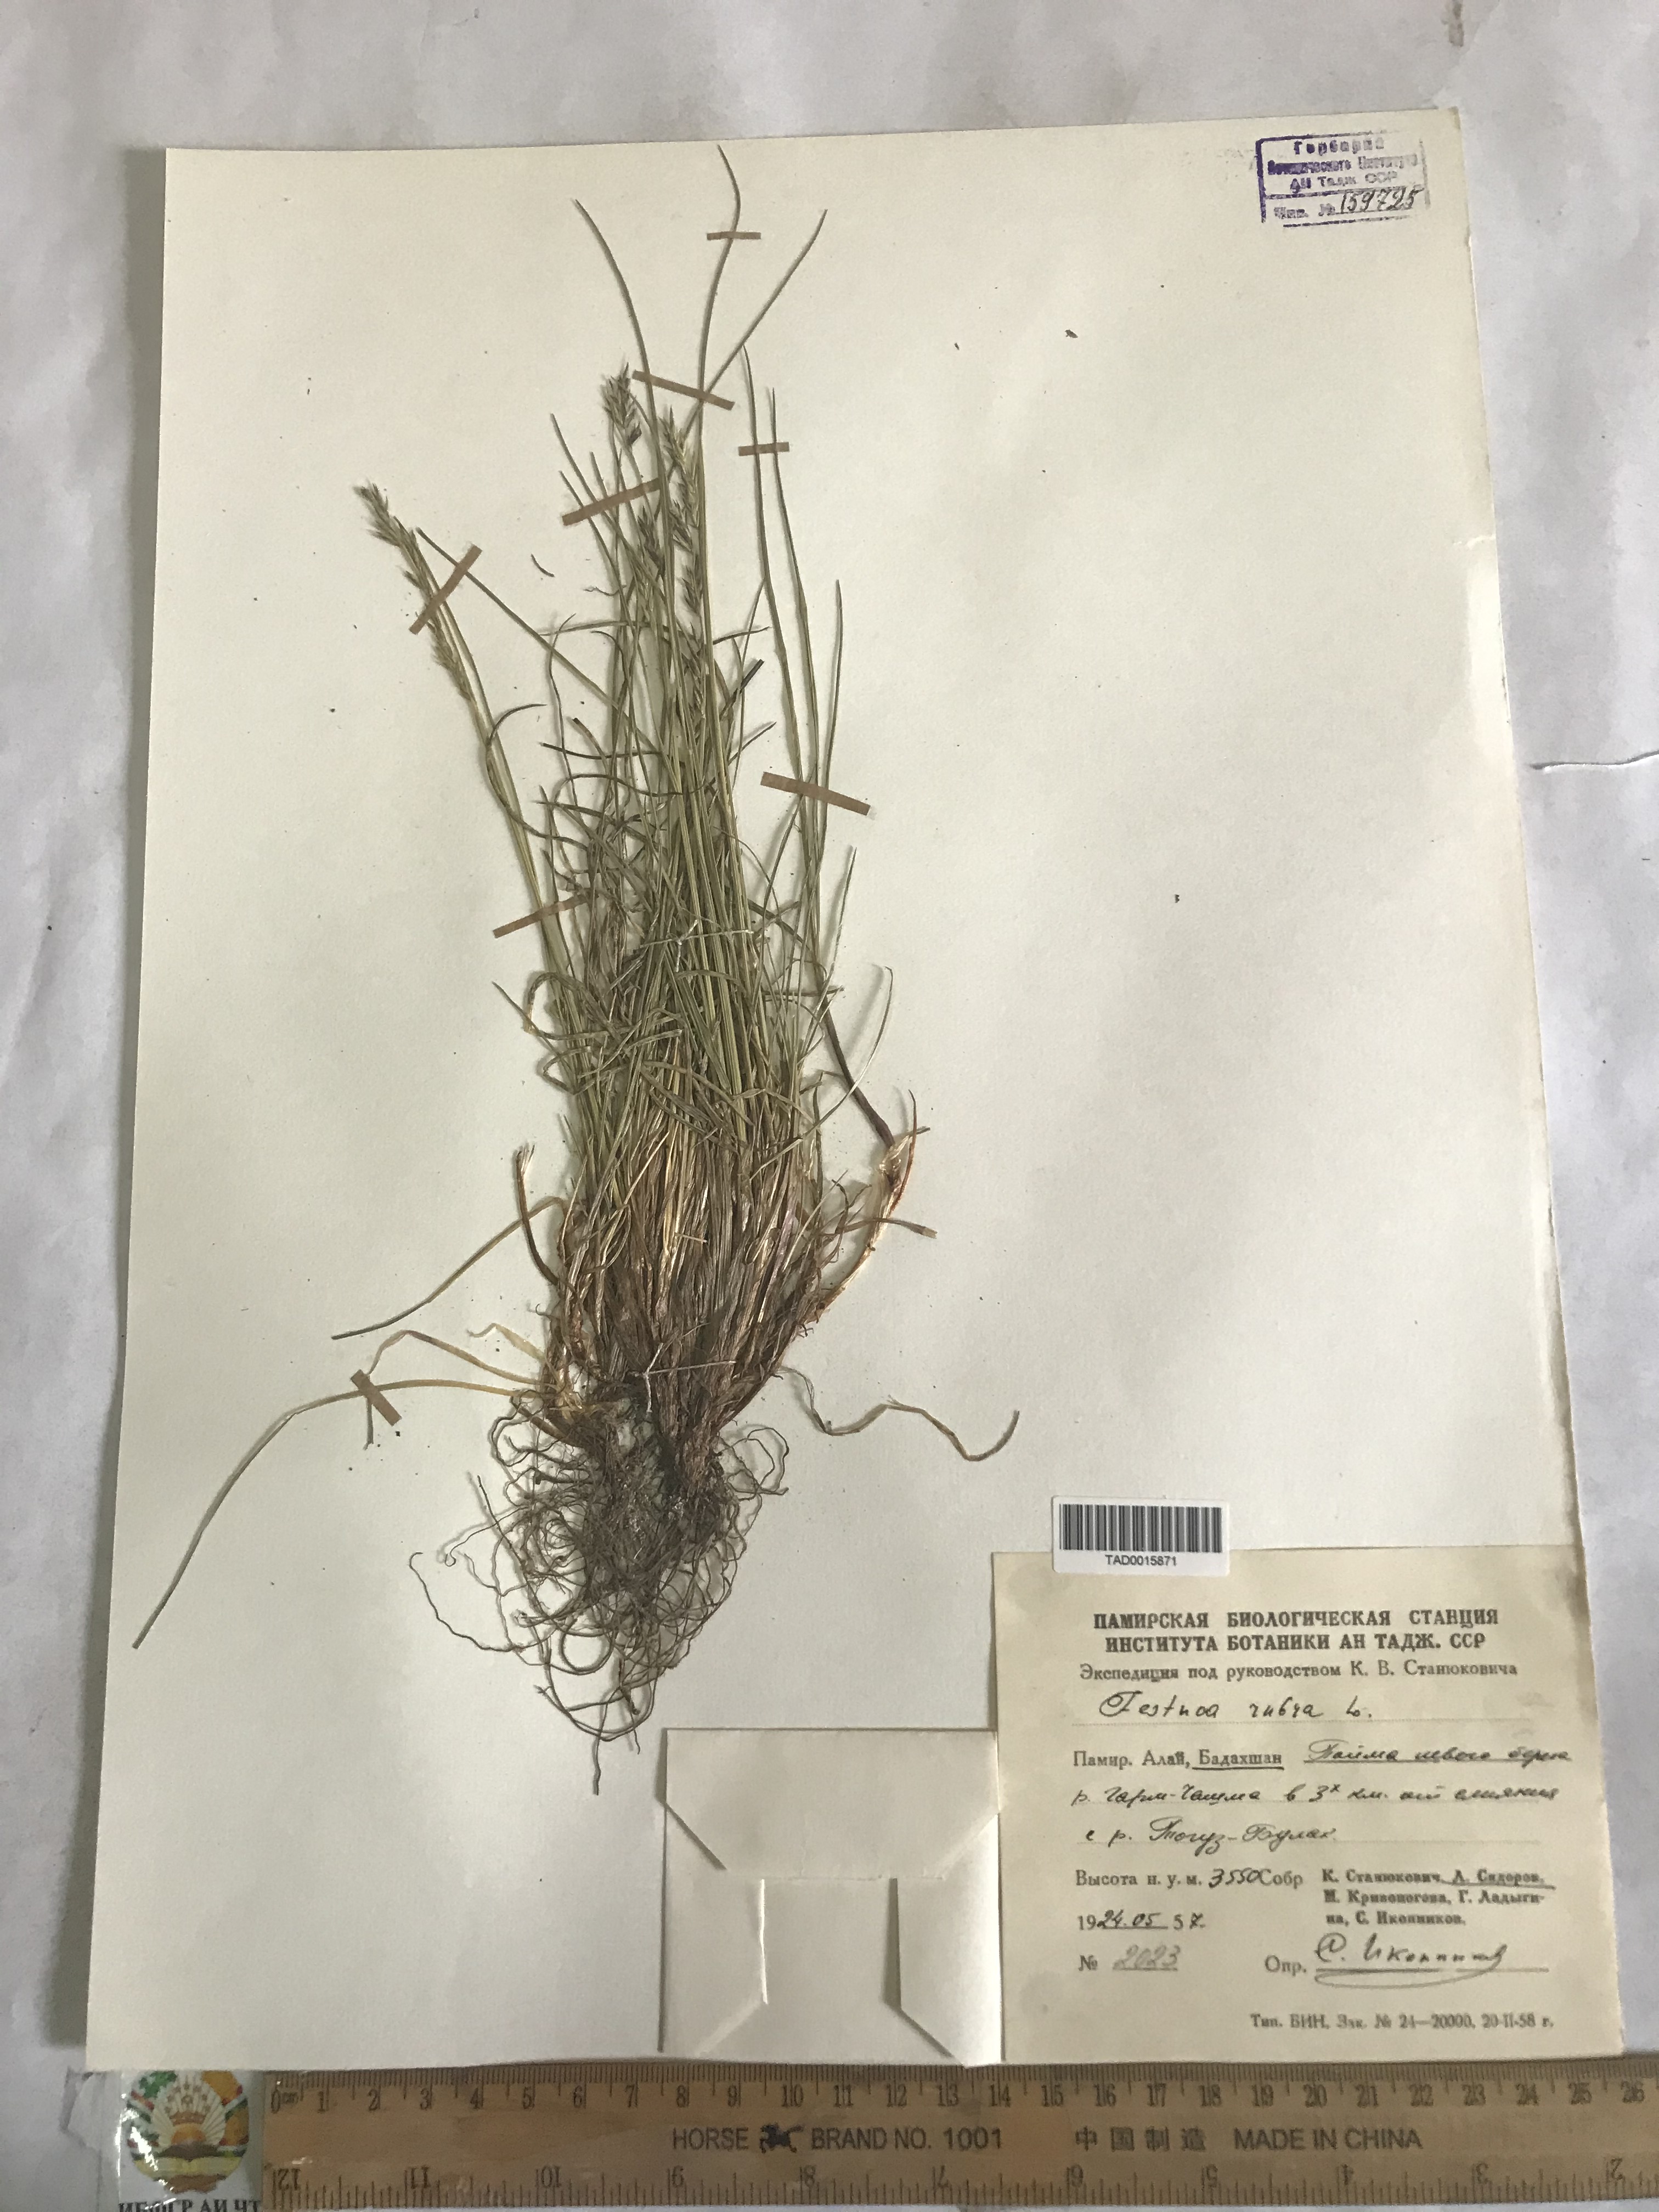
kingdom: Plantae
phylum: Tracheophyta
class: Liliopsida
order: Poales
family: Poaceae
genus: Festuca
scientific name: Festuca rubra
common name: Red fescue
